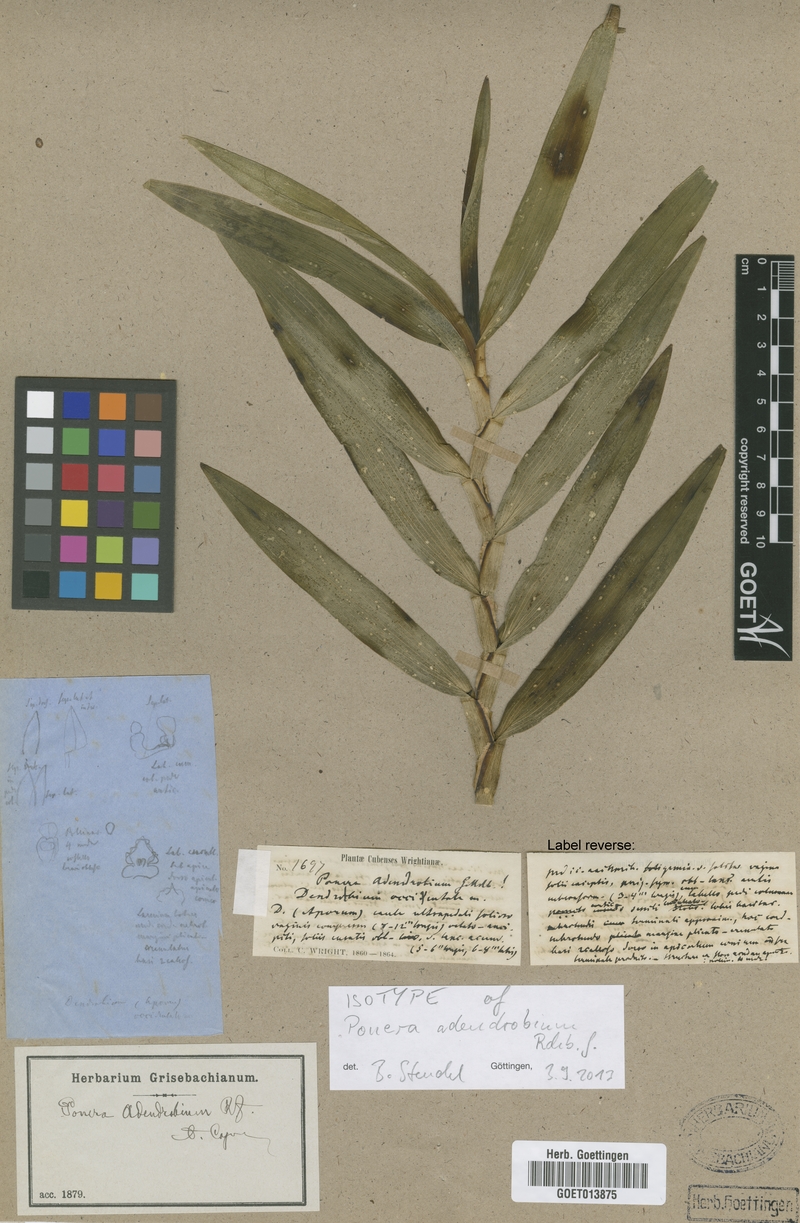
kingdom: Plantae
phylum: Tracheophyta
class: Liliopsida
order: Asparagales
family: Orchidaceae
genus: Maxillaria
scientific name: Maxillaria adendrobium
